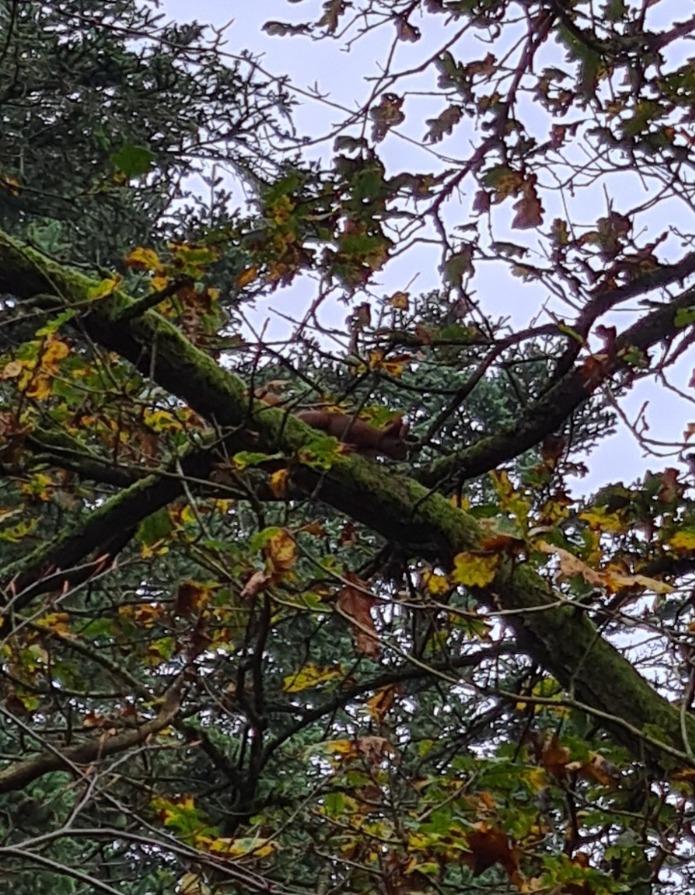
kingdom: Animalia
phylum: Chordata
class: Mammalia
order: Rodentia
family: Sciuridae
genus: Sciurus
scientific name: Sciurus vulgaris
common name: Egern
